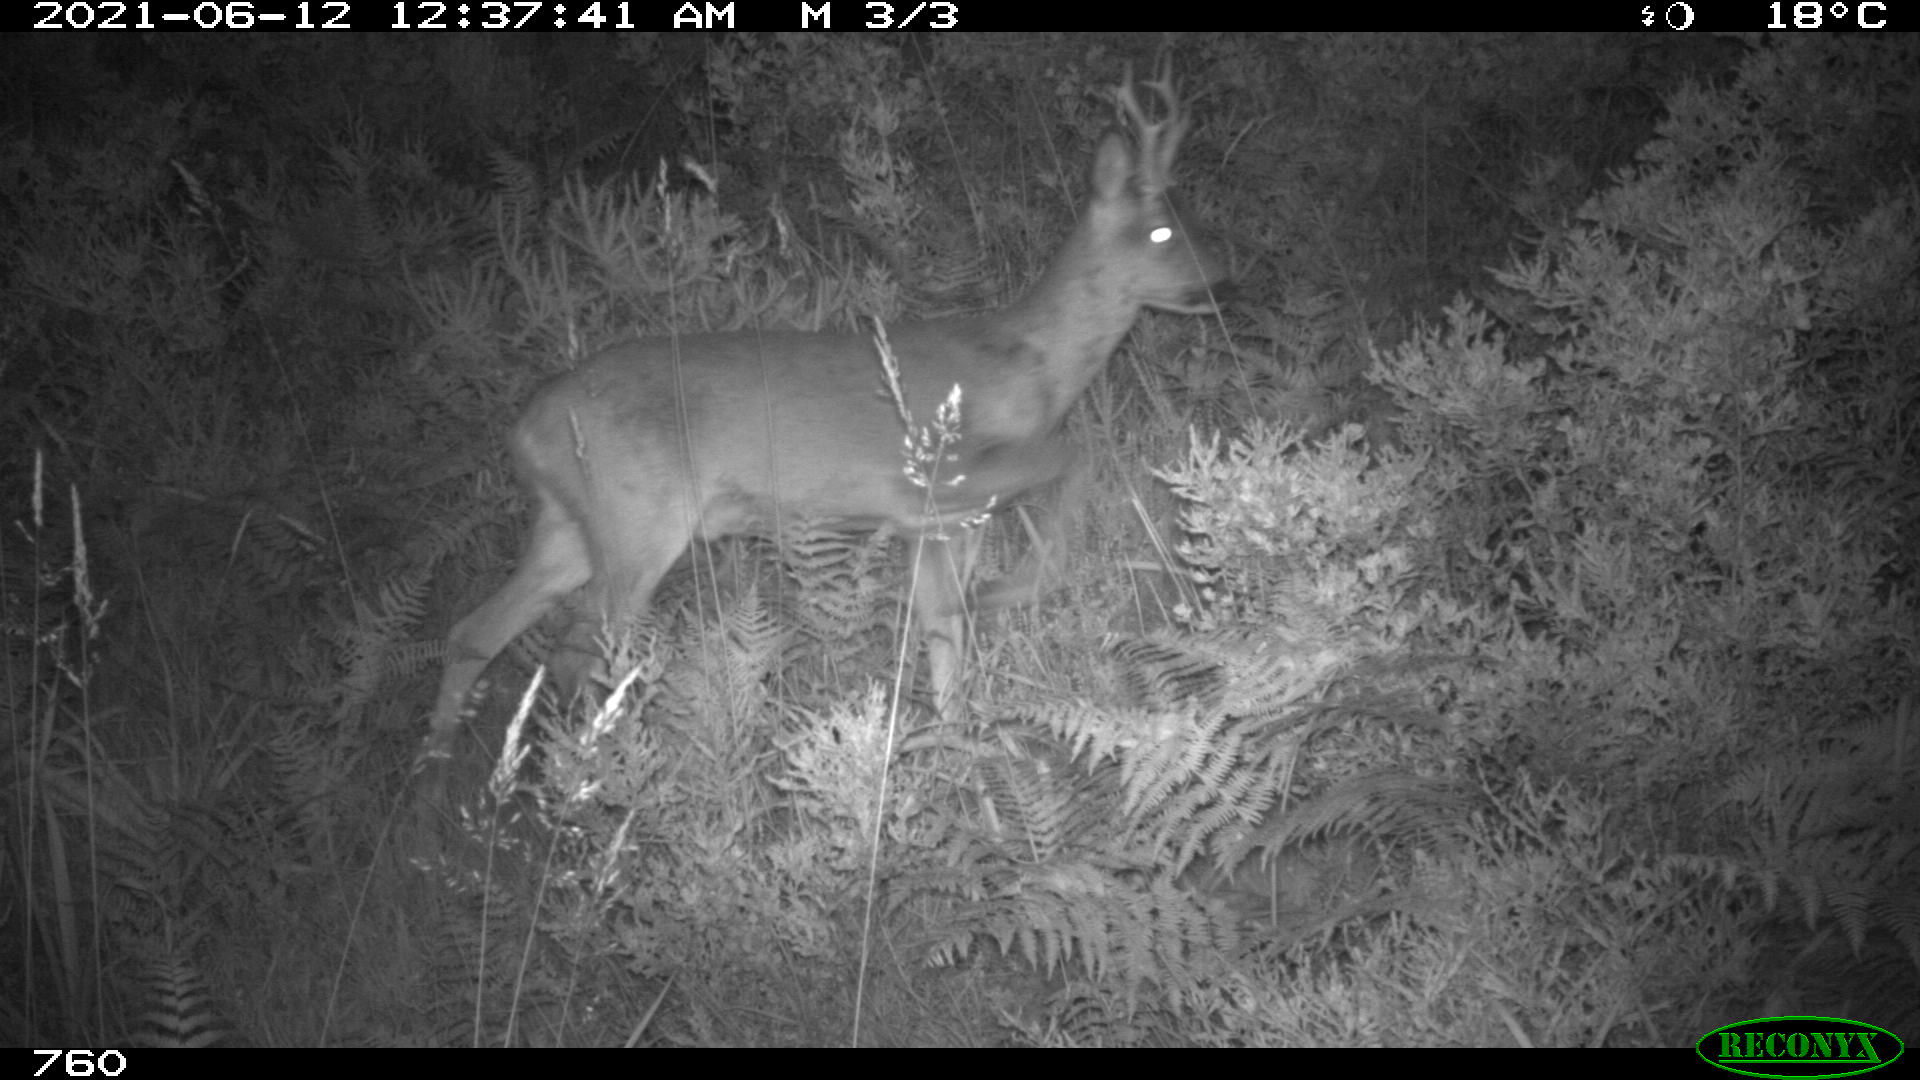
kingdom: Animalia
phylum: Chordata
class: Mammalia
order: Artiodactyla
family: Cervidae
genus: Capreolus
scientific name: Capreolus capreolus
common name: Western roe deer
